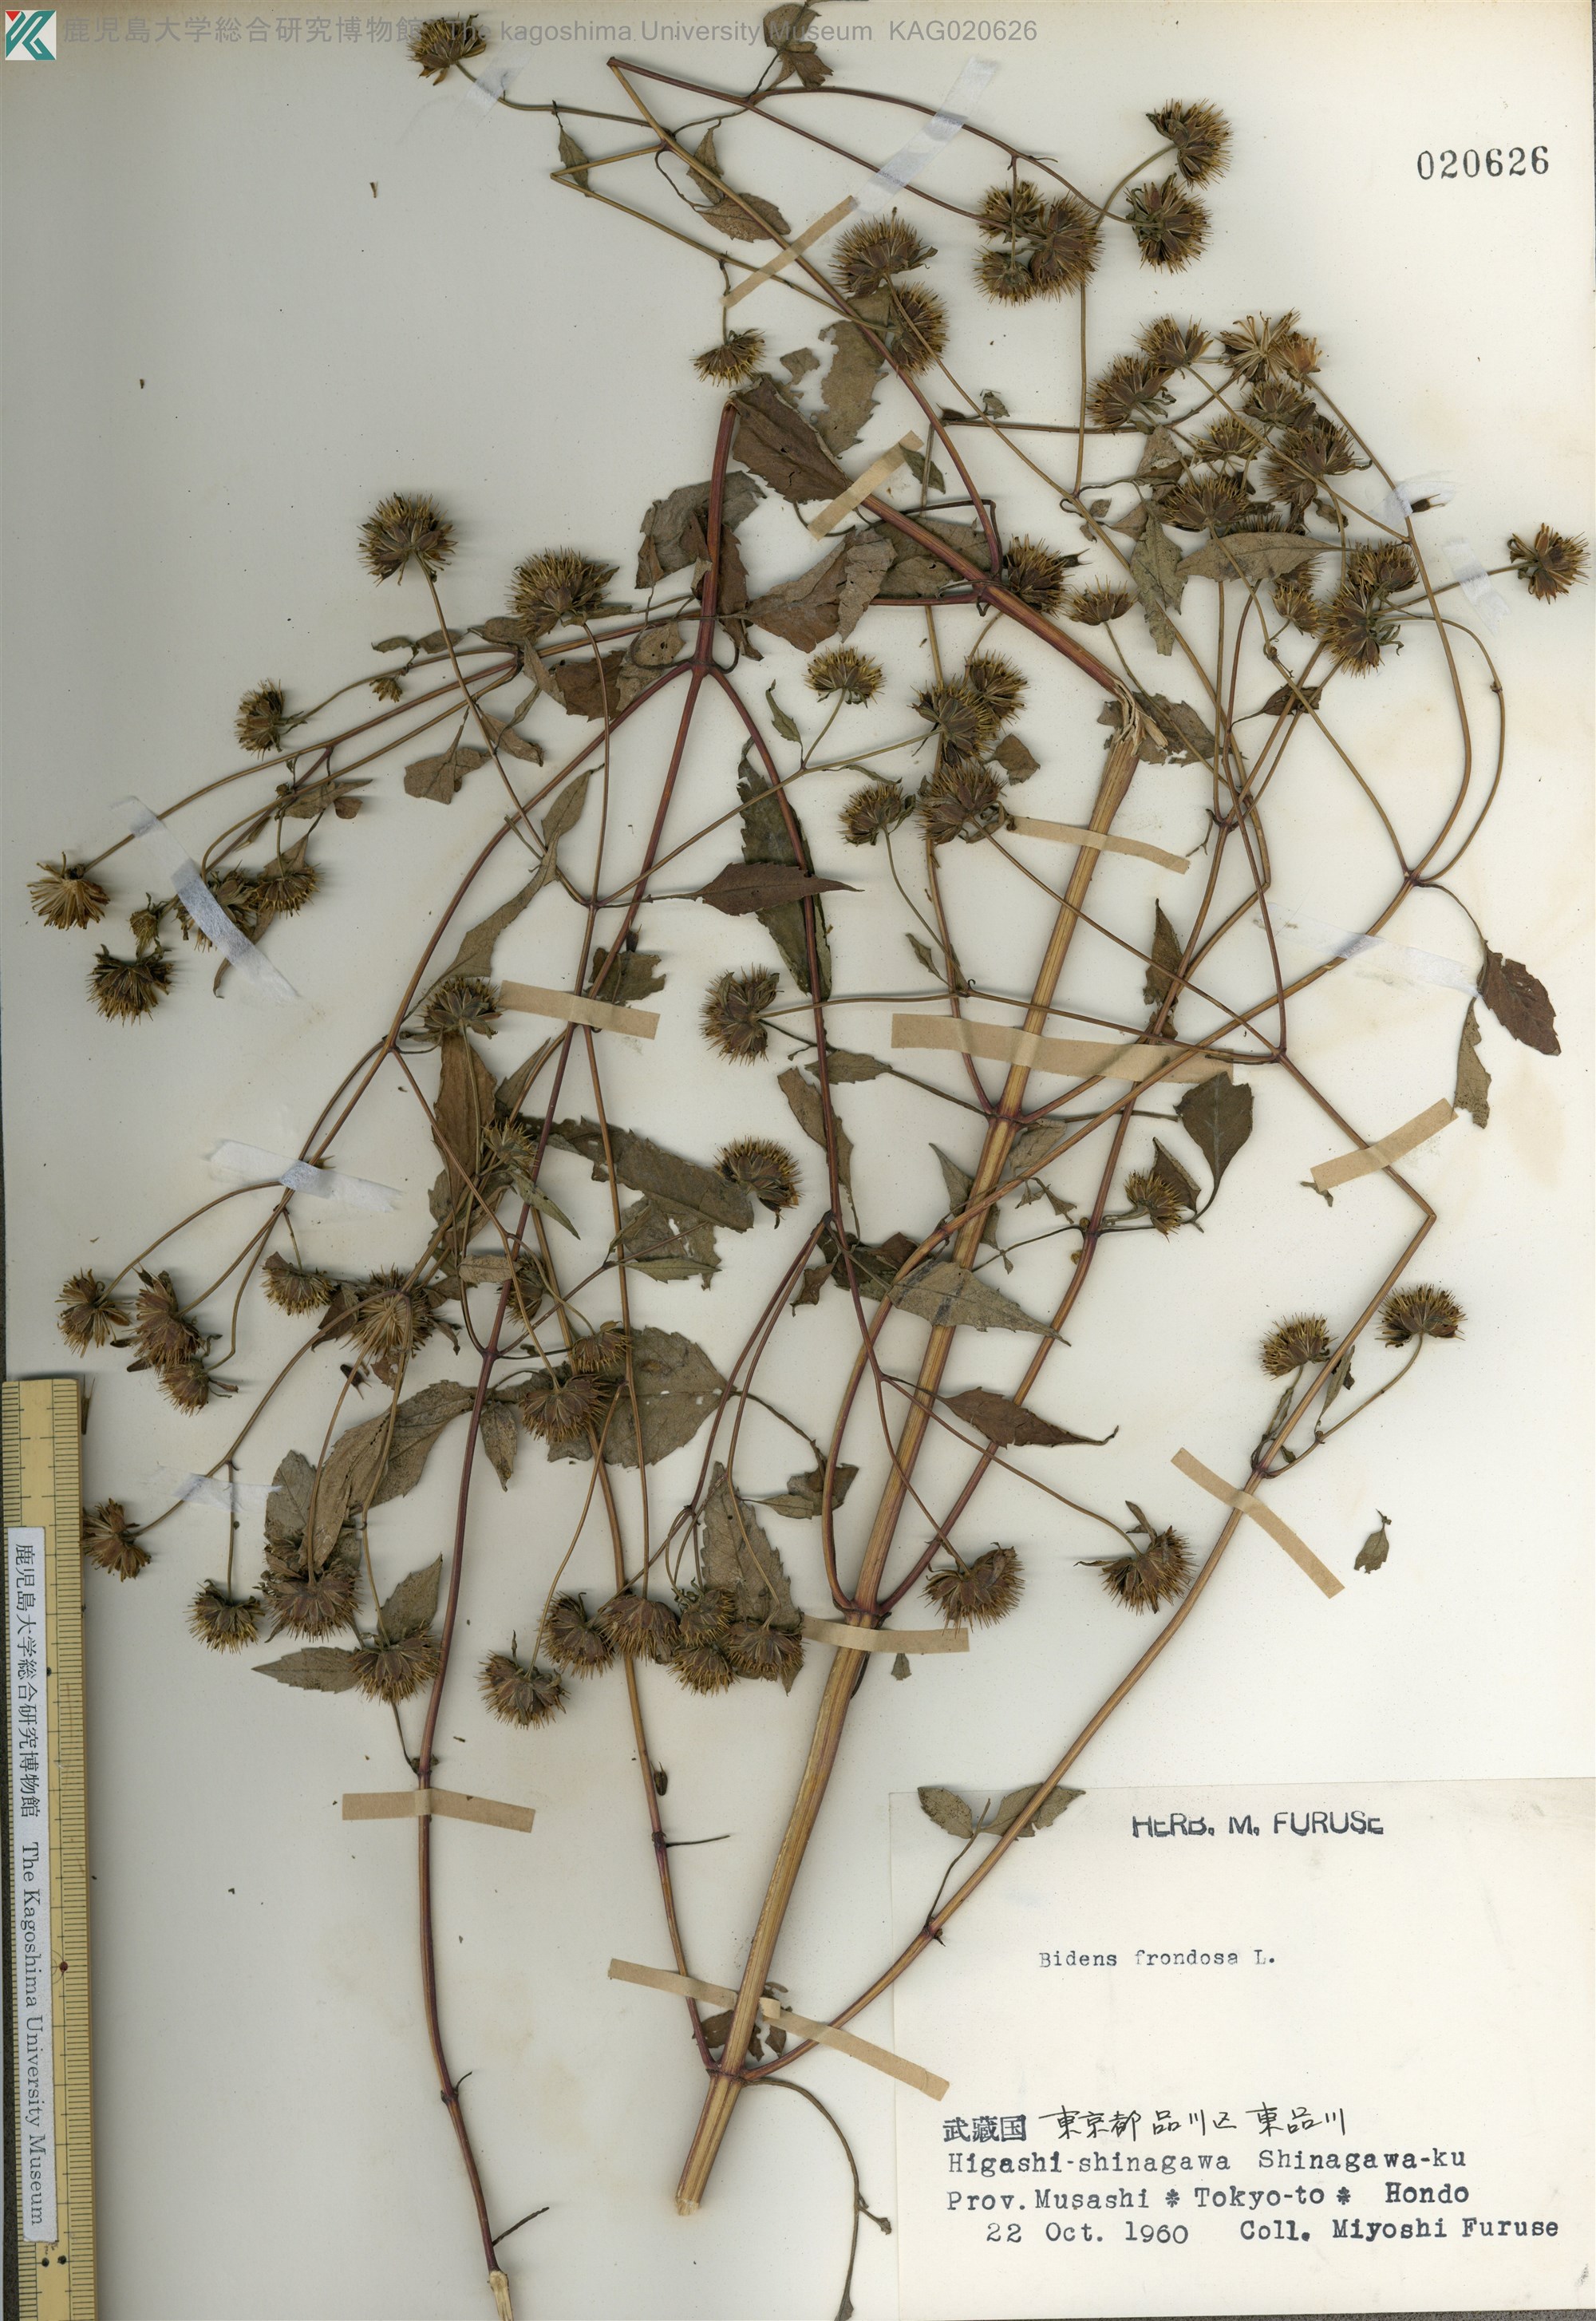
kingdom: Plantae
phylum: Tracheophyta
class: Magnoliopsida
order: Asterales
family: Asteraceae
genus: Bidens
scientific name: Bidens frondosa
